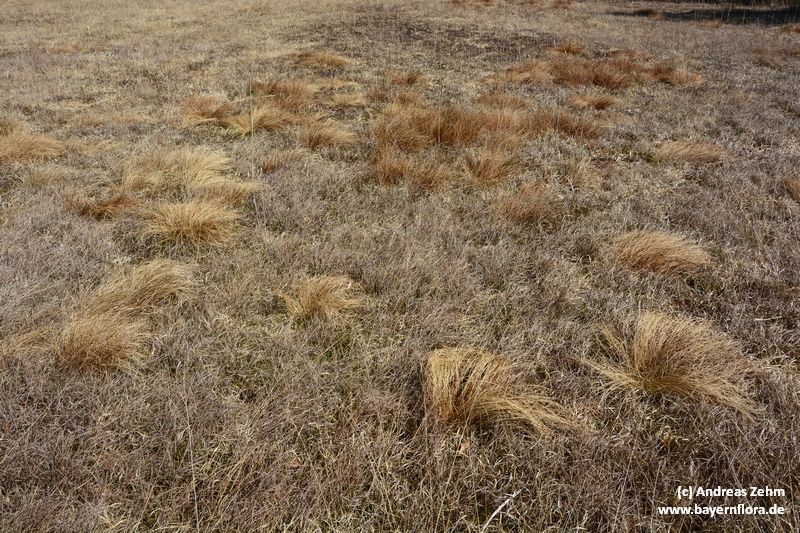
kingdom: Plantae
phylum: Tracheophyta
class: Liliopsida
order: Poales
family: Cyperaceae
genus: Eriophorum
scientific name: Eriophorum vaginatum
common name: Hare's-tail cottongrass
